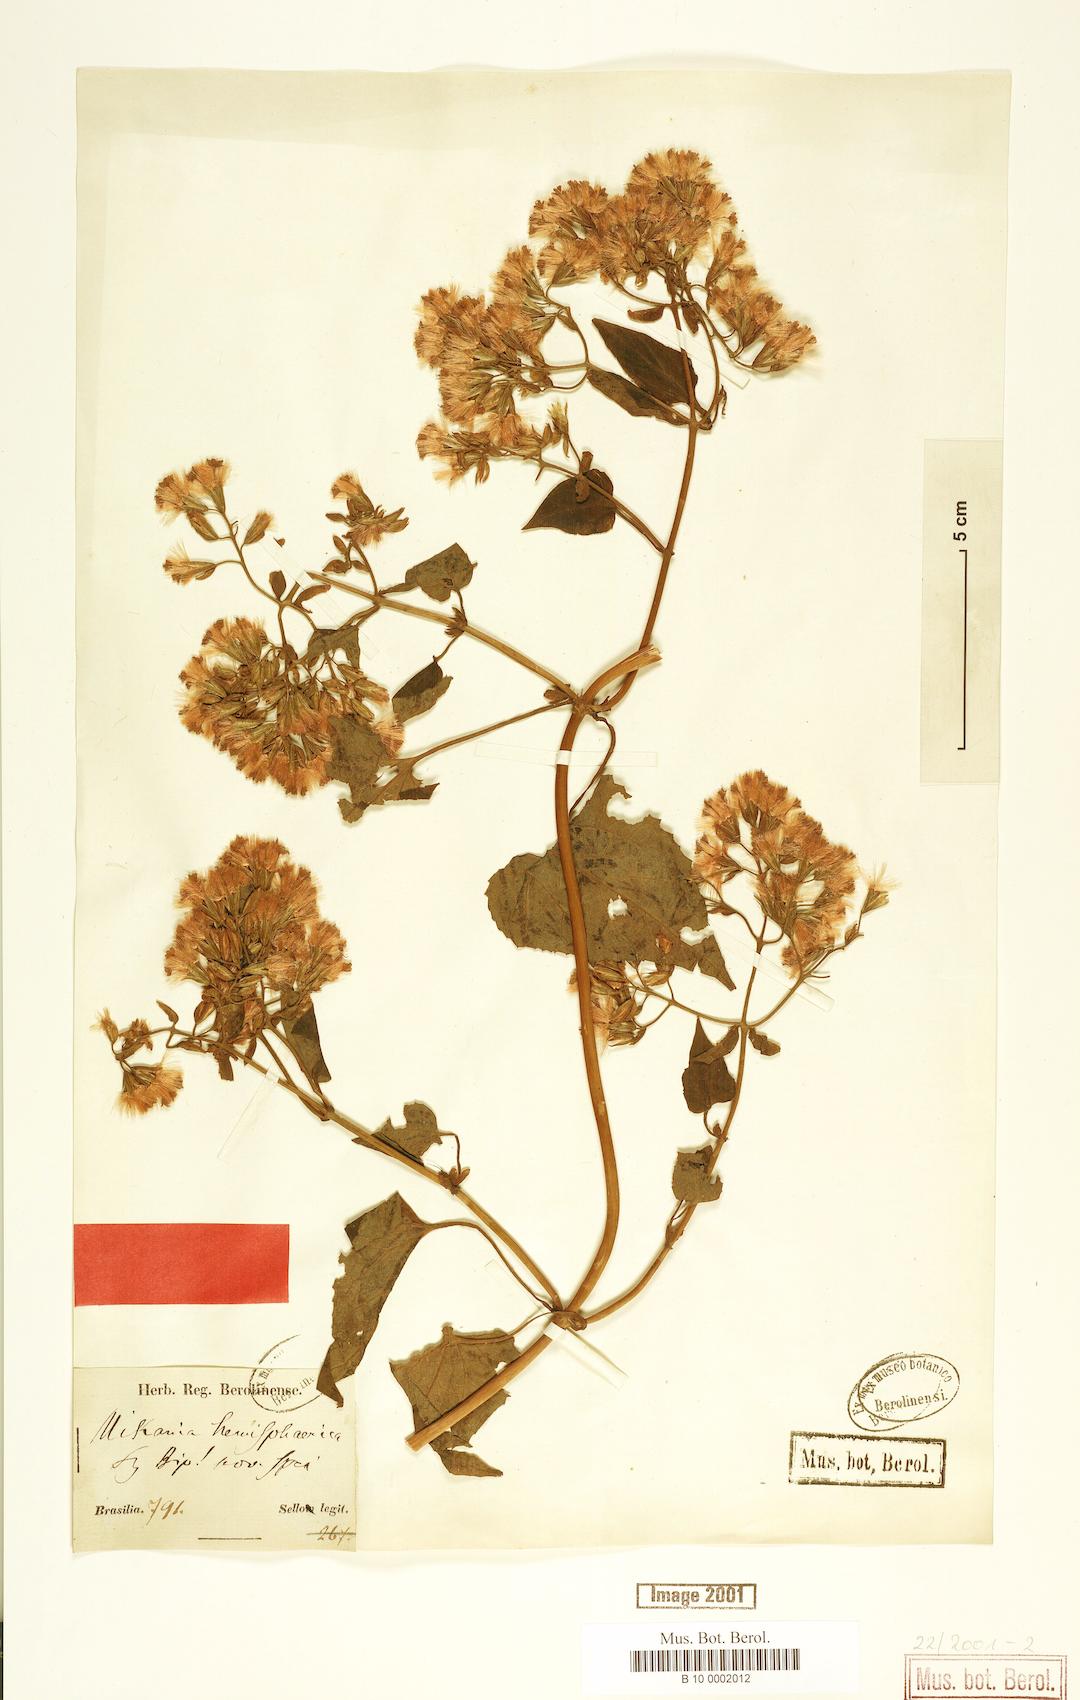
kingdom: Plantae
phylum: Tracheophyta
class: Magnoliopsida
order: Asterales
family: Asteraceae
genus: Mikania
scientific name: Mikania hemisphaerica
